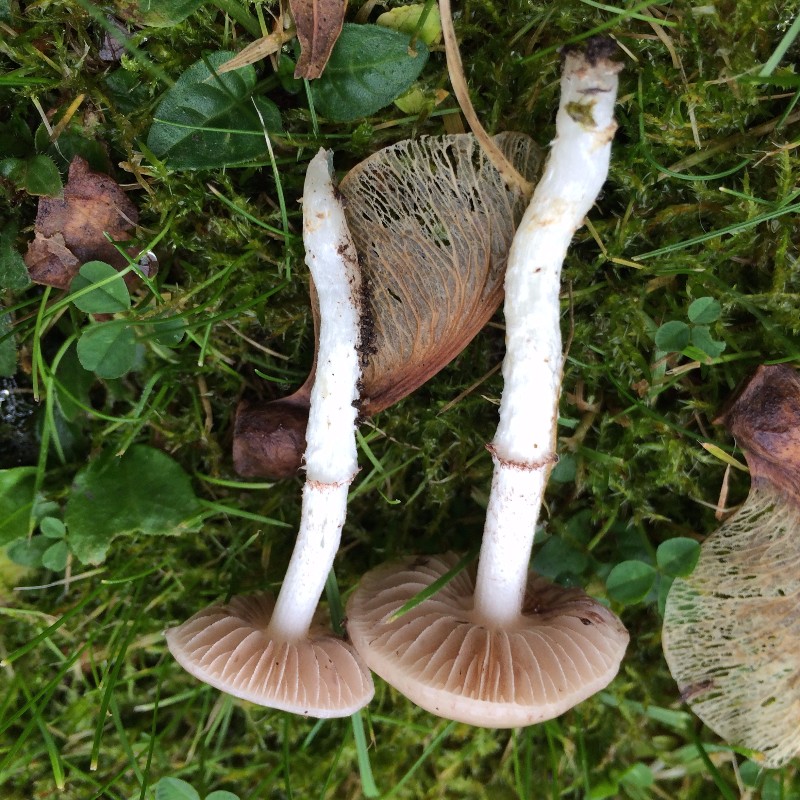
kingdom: Fungi
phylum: Basidiomycota
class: Agaricomycetes
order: Agaricales
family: Strophariaceae
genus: Stropharia
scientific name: Stropharia inuncta
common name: lillabrun bredblad
